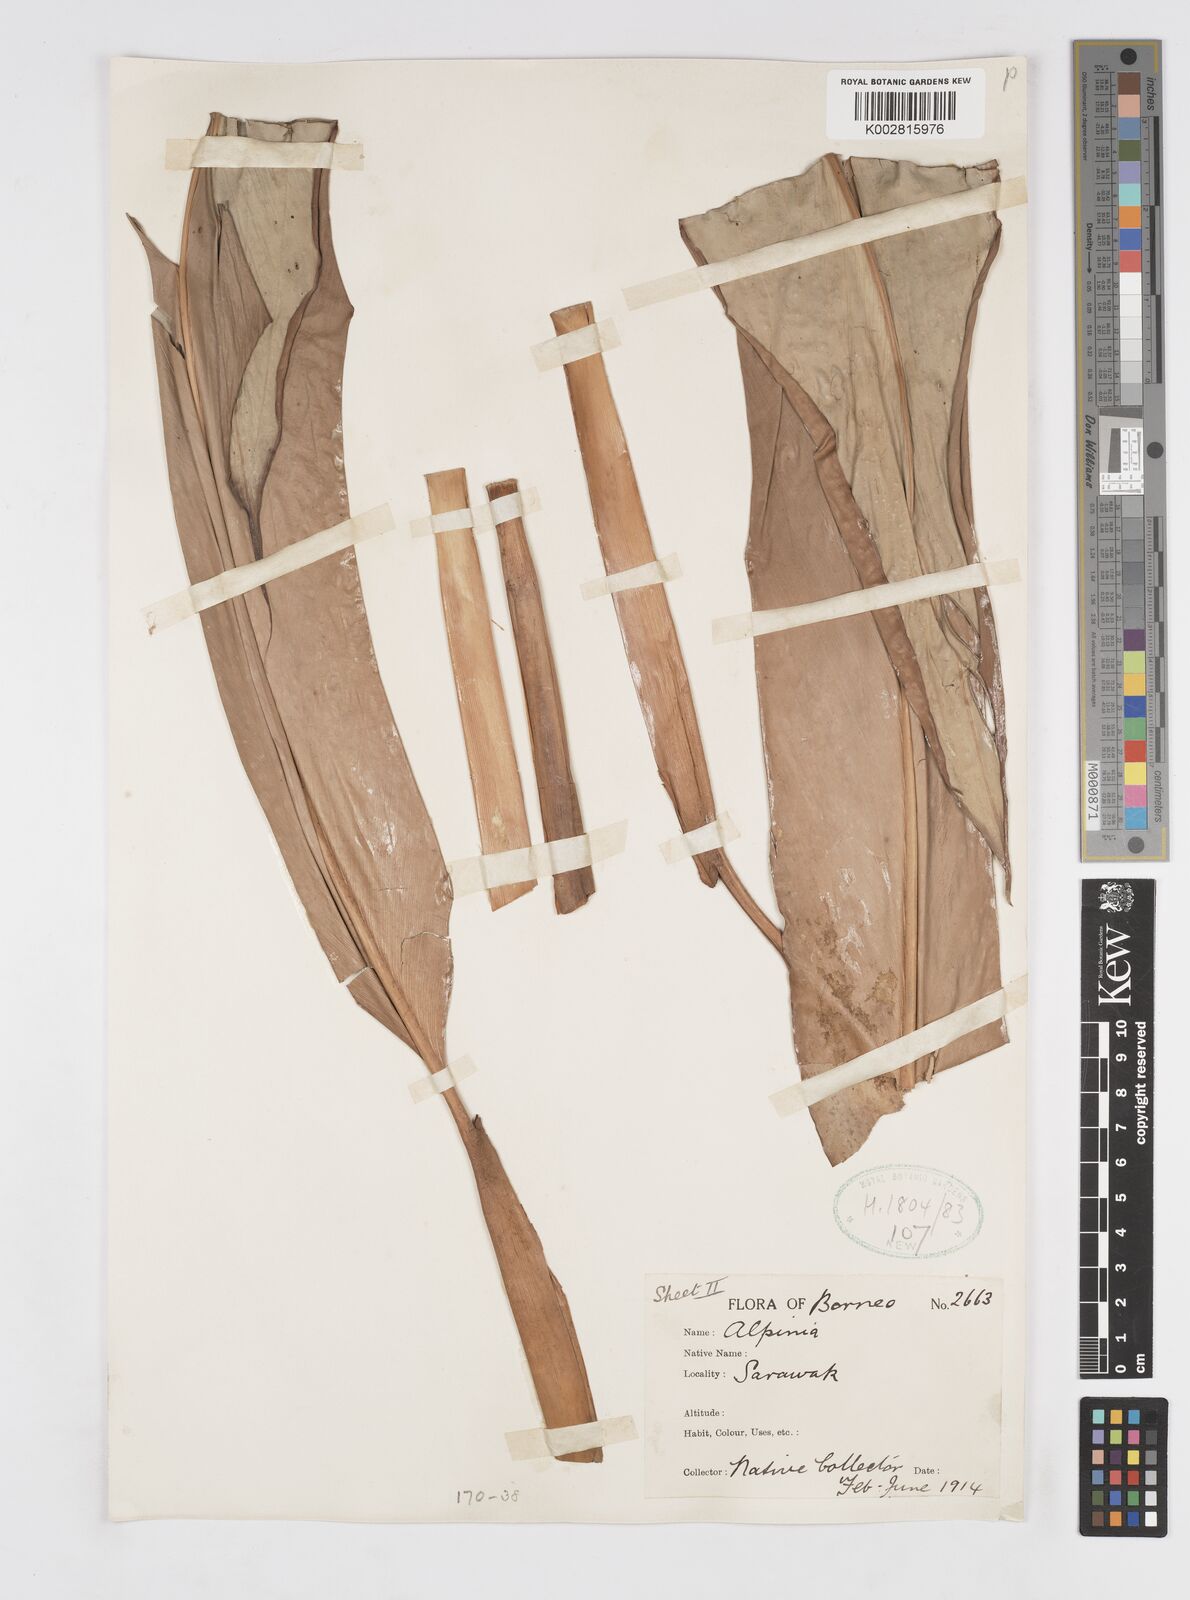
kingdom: Plantae
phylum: Tracheophyta
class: Liliopsida
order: Zingiberales
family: Zingiberaceae
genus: Alpinia
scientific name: Alpinia nieuwenhuizii
